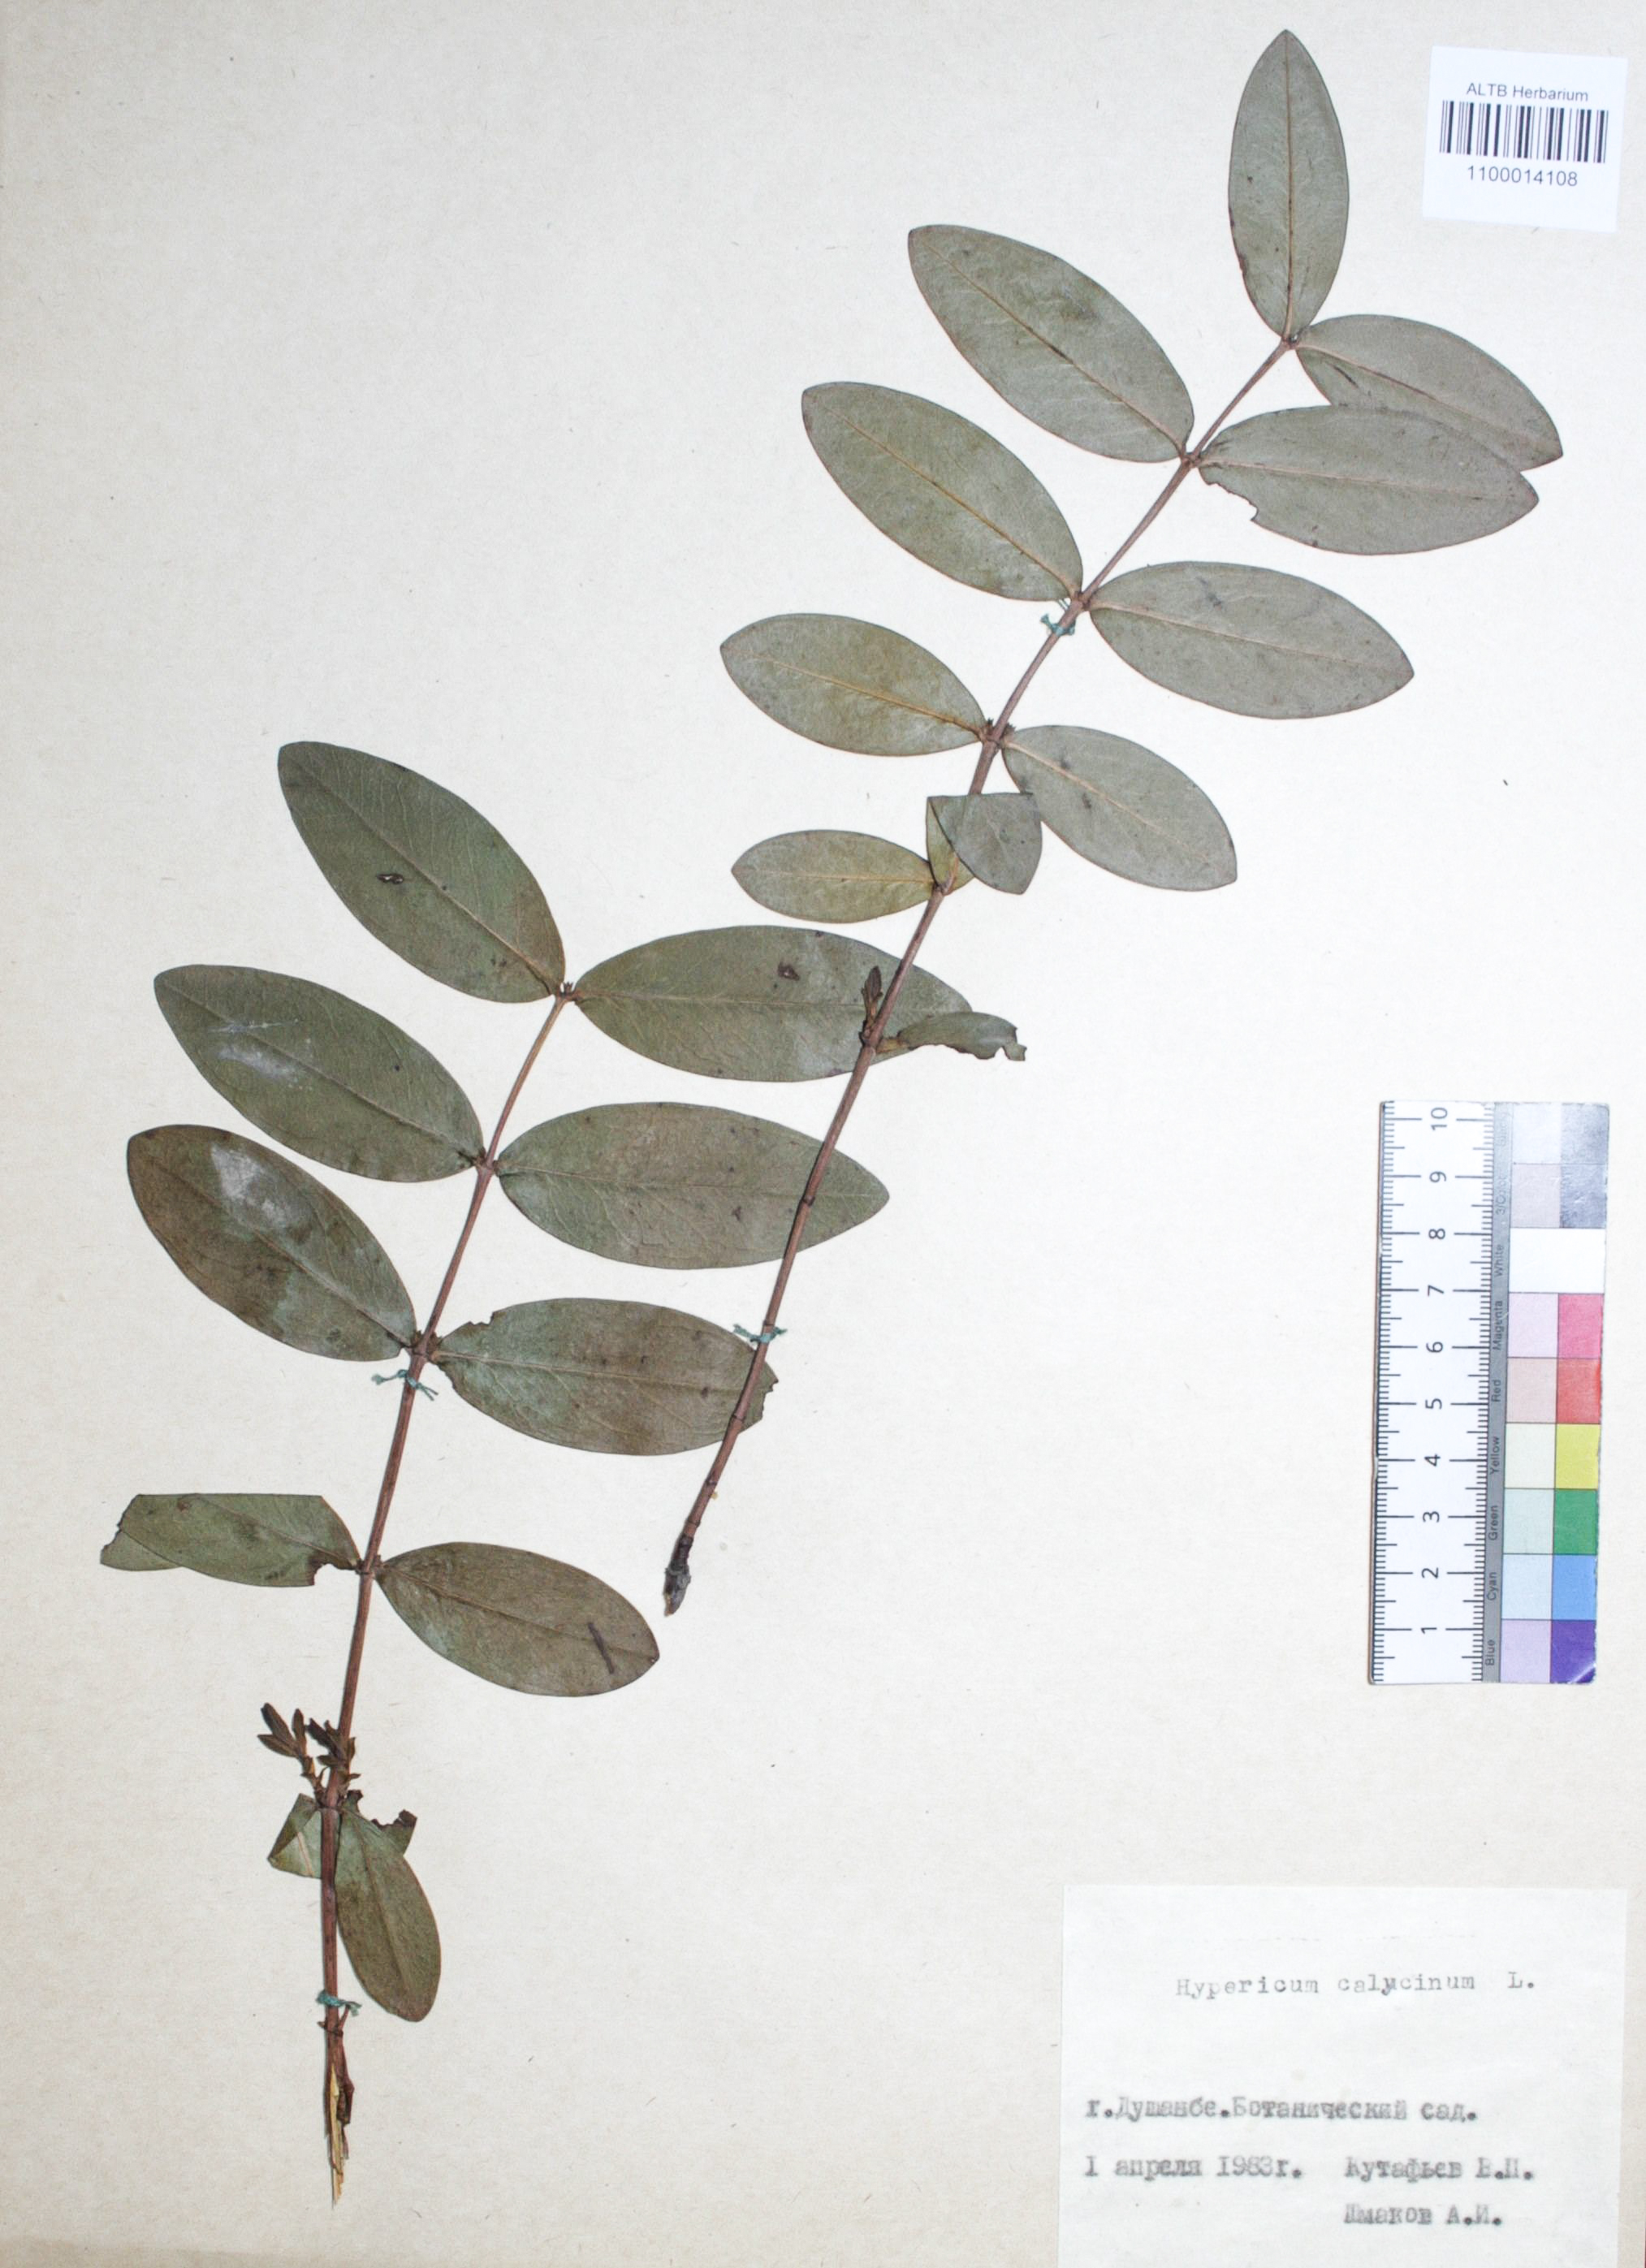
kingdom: Plantae
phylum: Tracheophyta
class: Magnoliopsida
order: Malpighiales
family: Hypericaceae
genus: Hypericum
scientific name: Hypericum calycinum
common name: Rose-of-sharon
